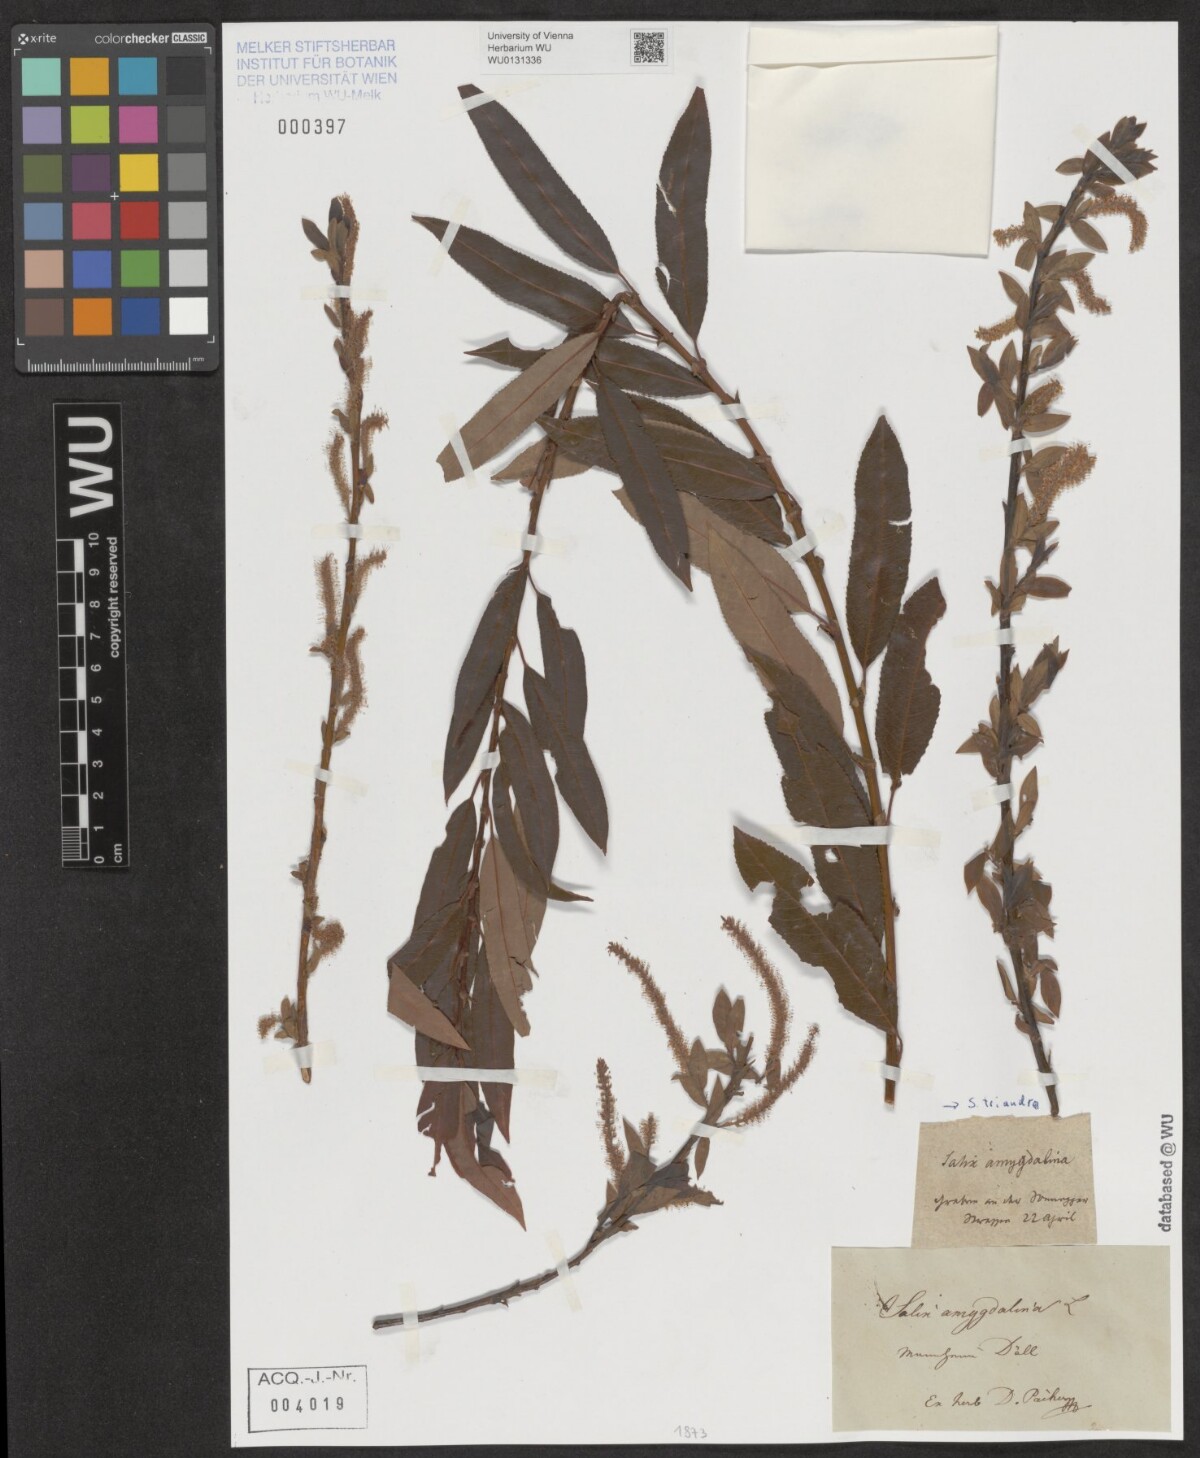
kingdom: Plantae
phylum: Tracheophyta
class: Magnoliopsida
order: Malpighiales
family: Salicaceae
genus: Salix
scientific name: Salix triandra
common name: Almond willow
